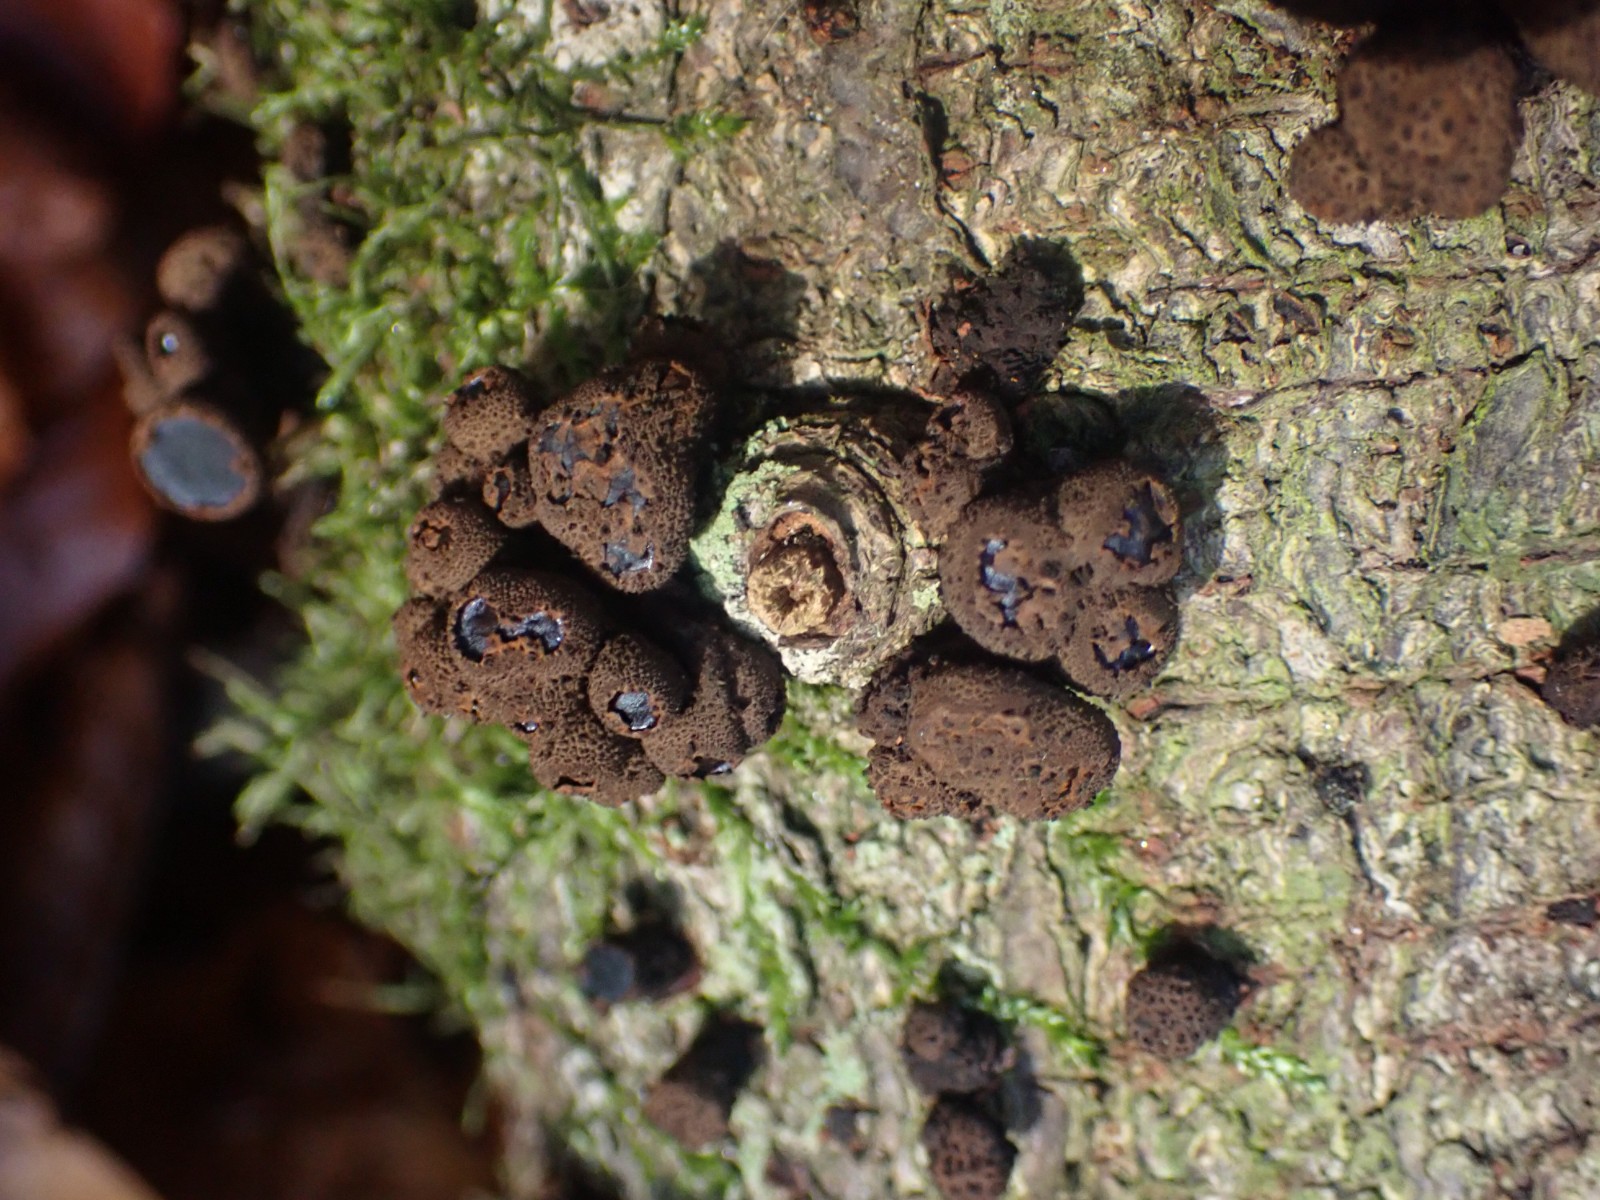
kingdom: Fungi
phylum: Ascomycota
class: Leotiomycetes
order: Phacidiales
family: Phacidiaceae
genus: Bulgaria
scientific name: Bulgaria inquinans
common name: afsmittende topsvamp
